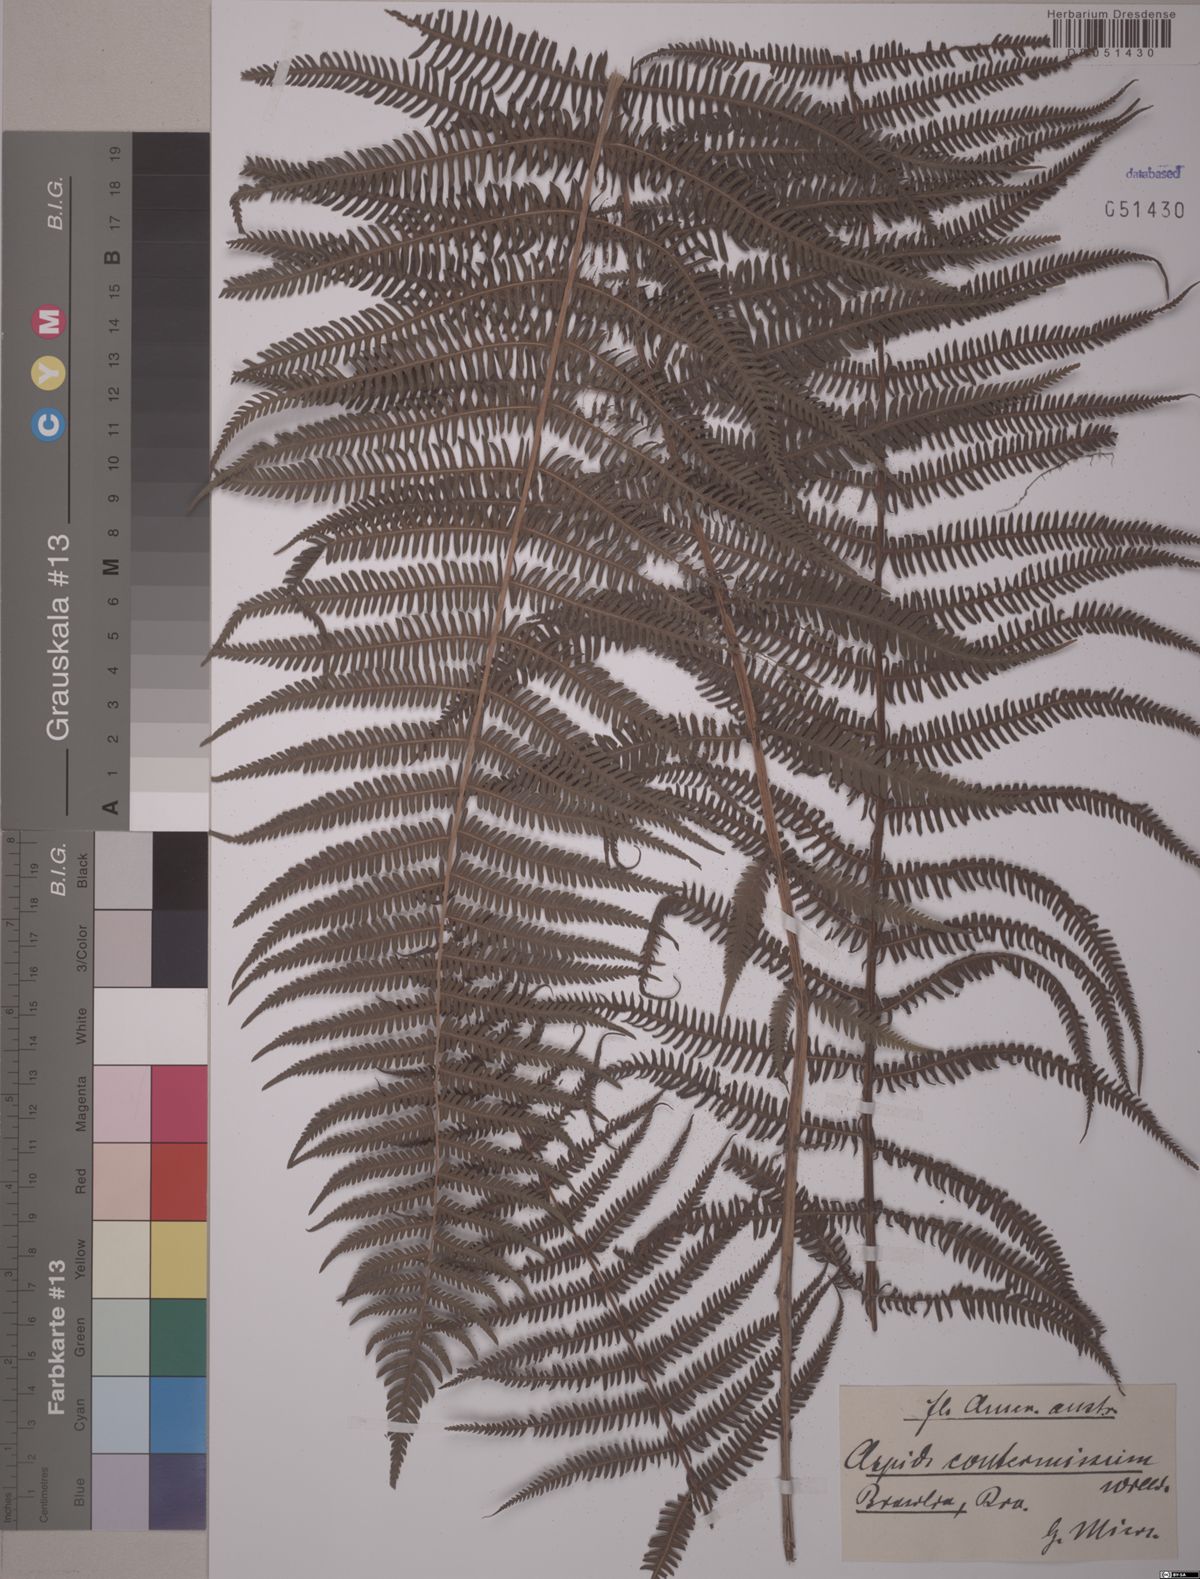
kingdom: Plantae
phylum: Tracheophyta
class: Polypodiopsida
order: Polypodiales
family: Thelypteridaceae
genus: Amauropelta
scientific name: Amauropelta opposita
